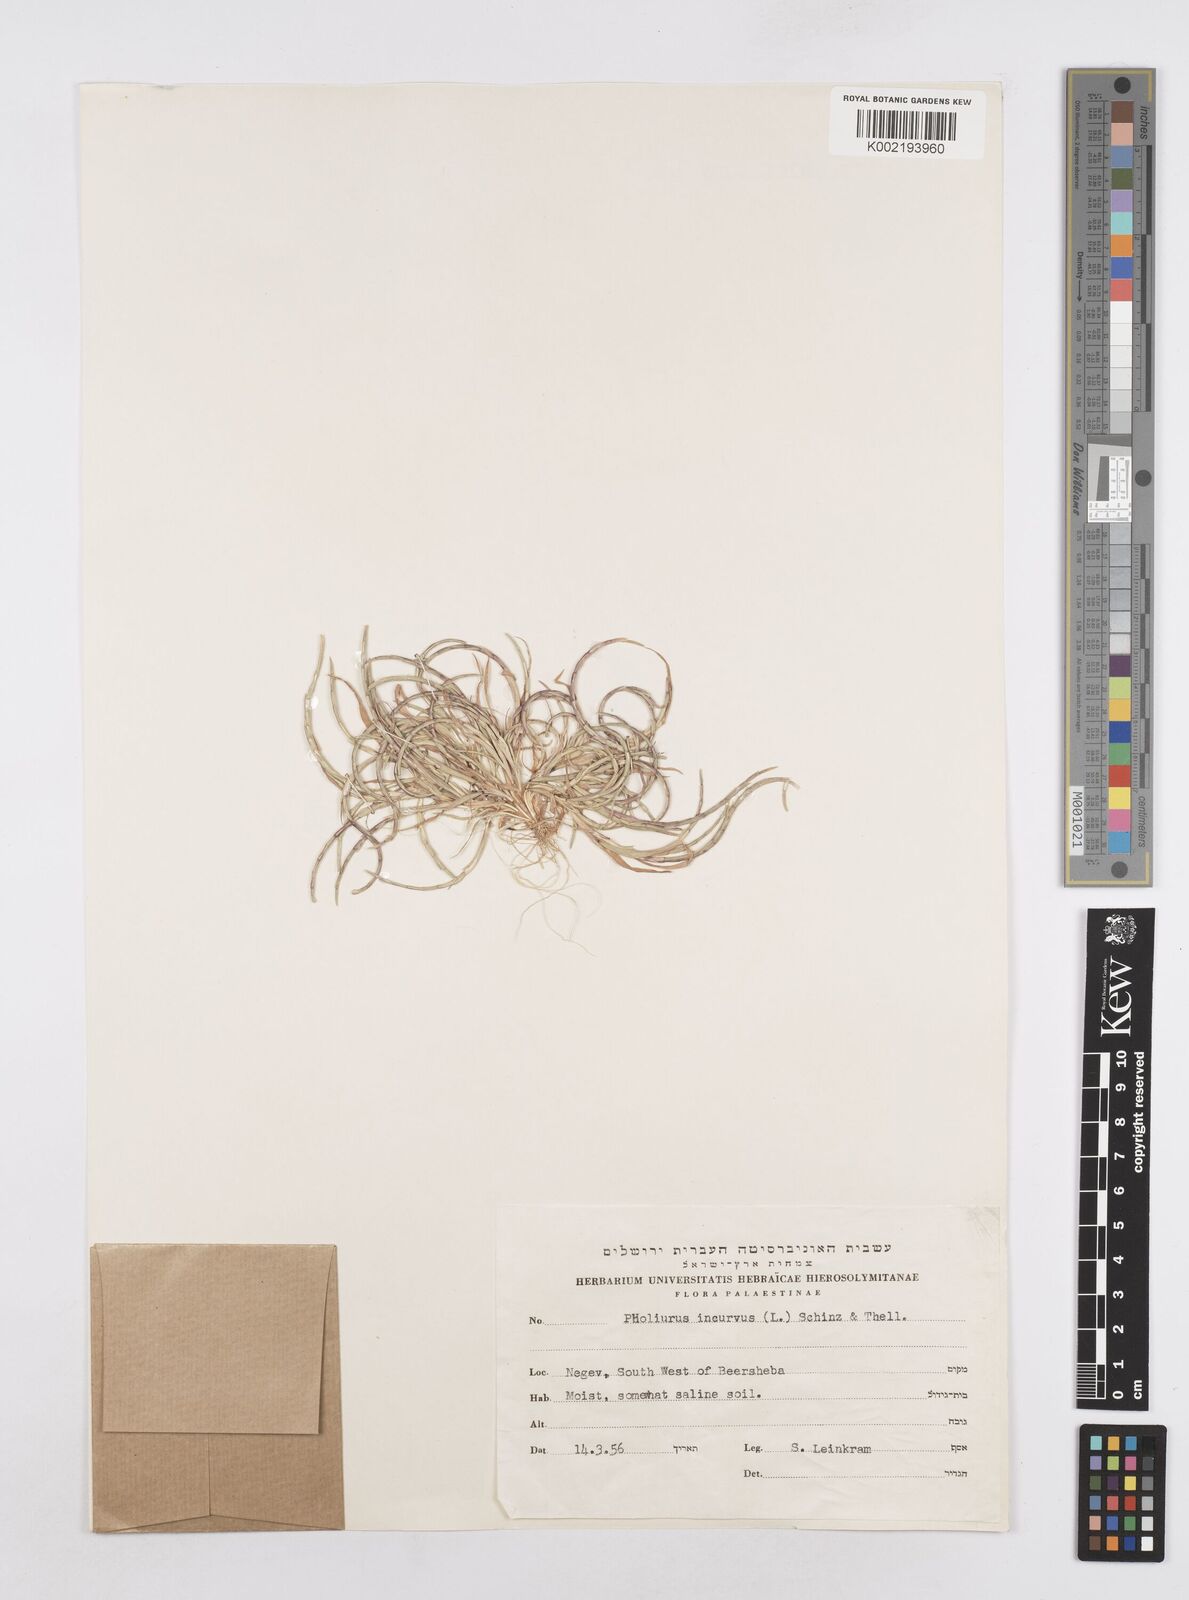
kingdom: Plantae
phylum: Tracheophyta
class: Liliopsida
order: Poales
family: Poaceae
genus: Parapholis
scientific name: Parapholis incurva
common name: Curved sicklegrass
